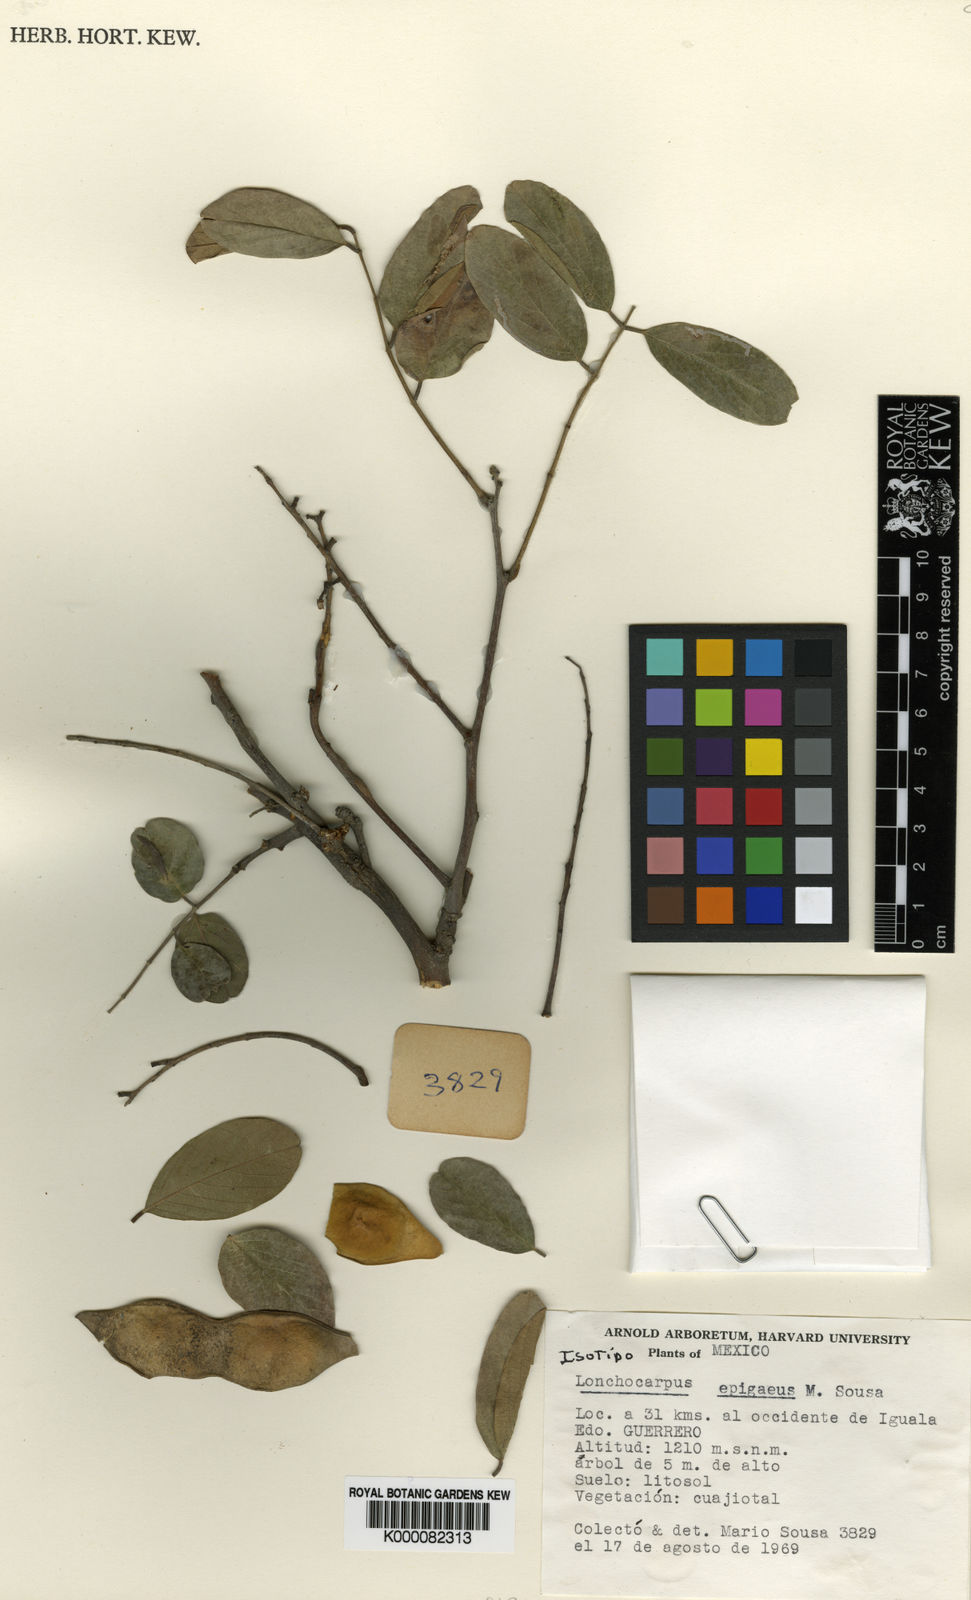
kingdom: Plantae
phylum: Tracheophyta
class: Magnoliopsida
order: Fabales
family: Fabaceae
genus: Lonchocarpus
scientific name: Lonchocarpus epigaeus
